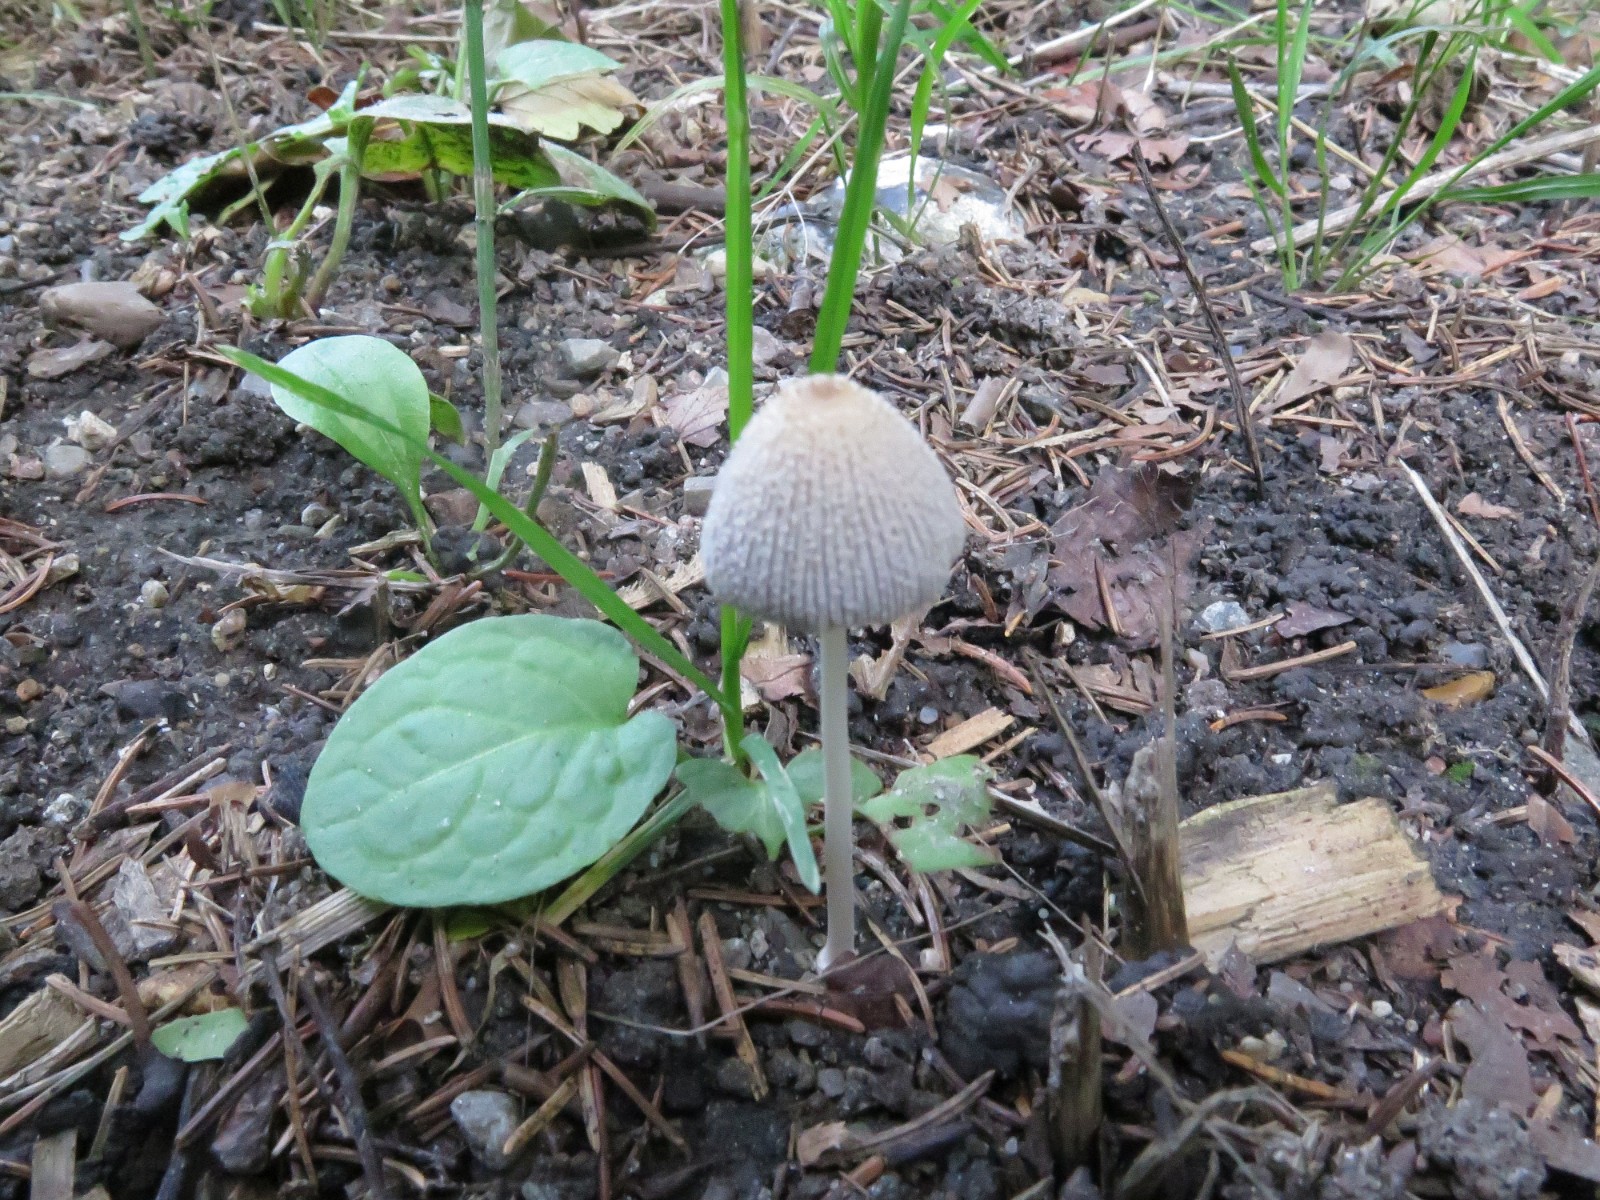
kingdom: Fungi
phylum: Basidiomycota
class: Agaricomycetes
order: Agaricales
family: Psathyrellaceae
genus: Coprinellus
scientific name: Coprinellus
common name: blækhat
